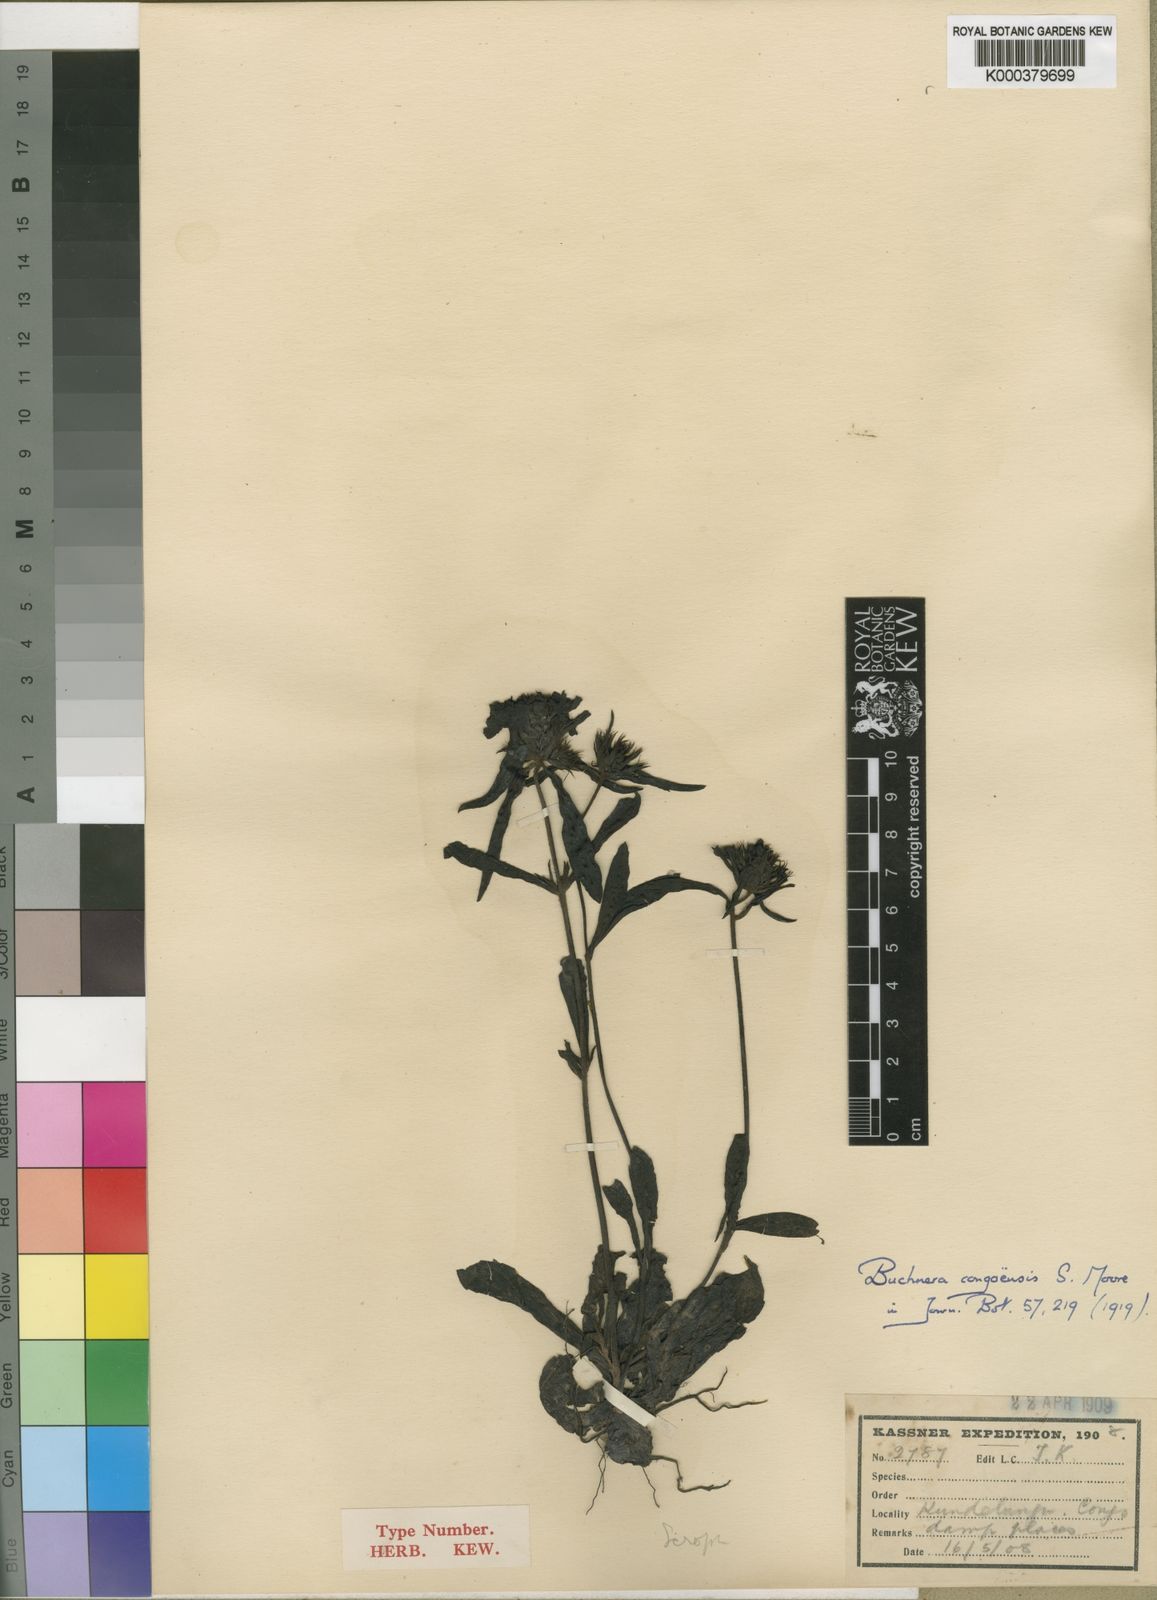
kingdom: Plantae
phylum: Tracheophyta
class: Magnoliopsida
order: Lamiales
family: Orobanchaceae
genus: Buchnera
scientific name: Buchnera congoensis
